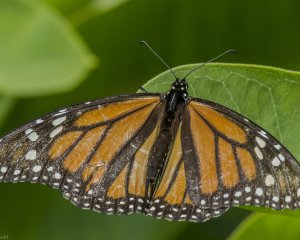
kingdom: Animalia
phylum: Arthropoda
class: Insecta
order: Lepidoptera
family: Nymphalidae
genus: Danaus
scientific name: Danaus plexippus
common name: Monarch
